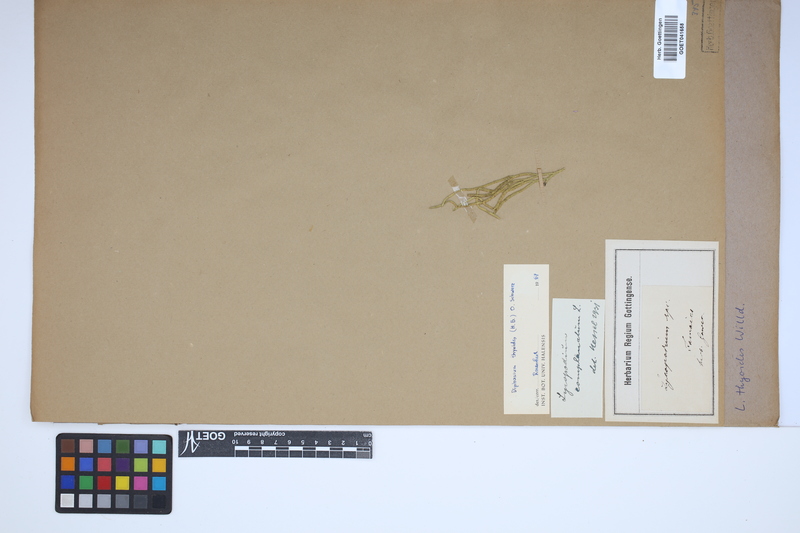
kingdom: Plantae
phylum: Tracheophyta
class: Lycopodiopsida
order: Lycopodiales
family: Lycopodiaceae
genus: Diphasiastrum
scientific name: Diphasiastrum thyoides
